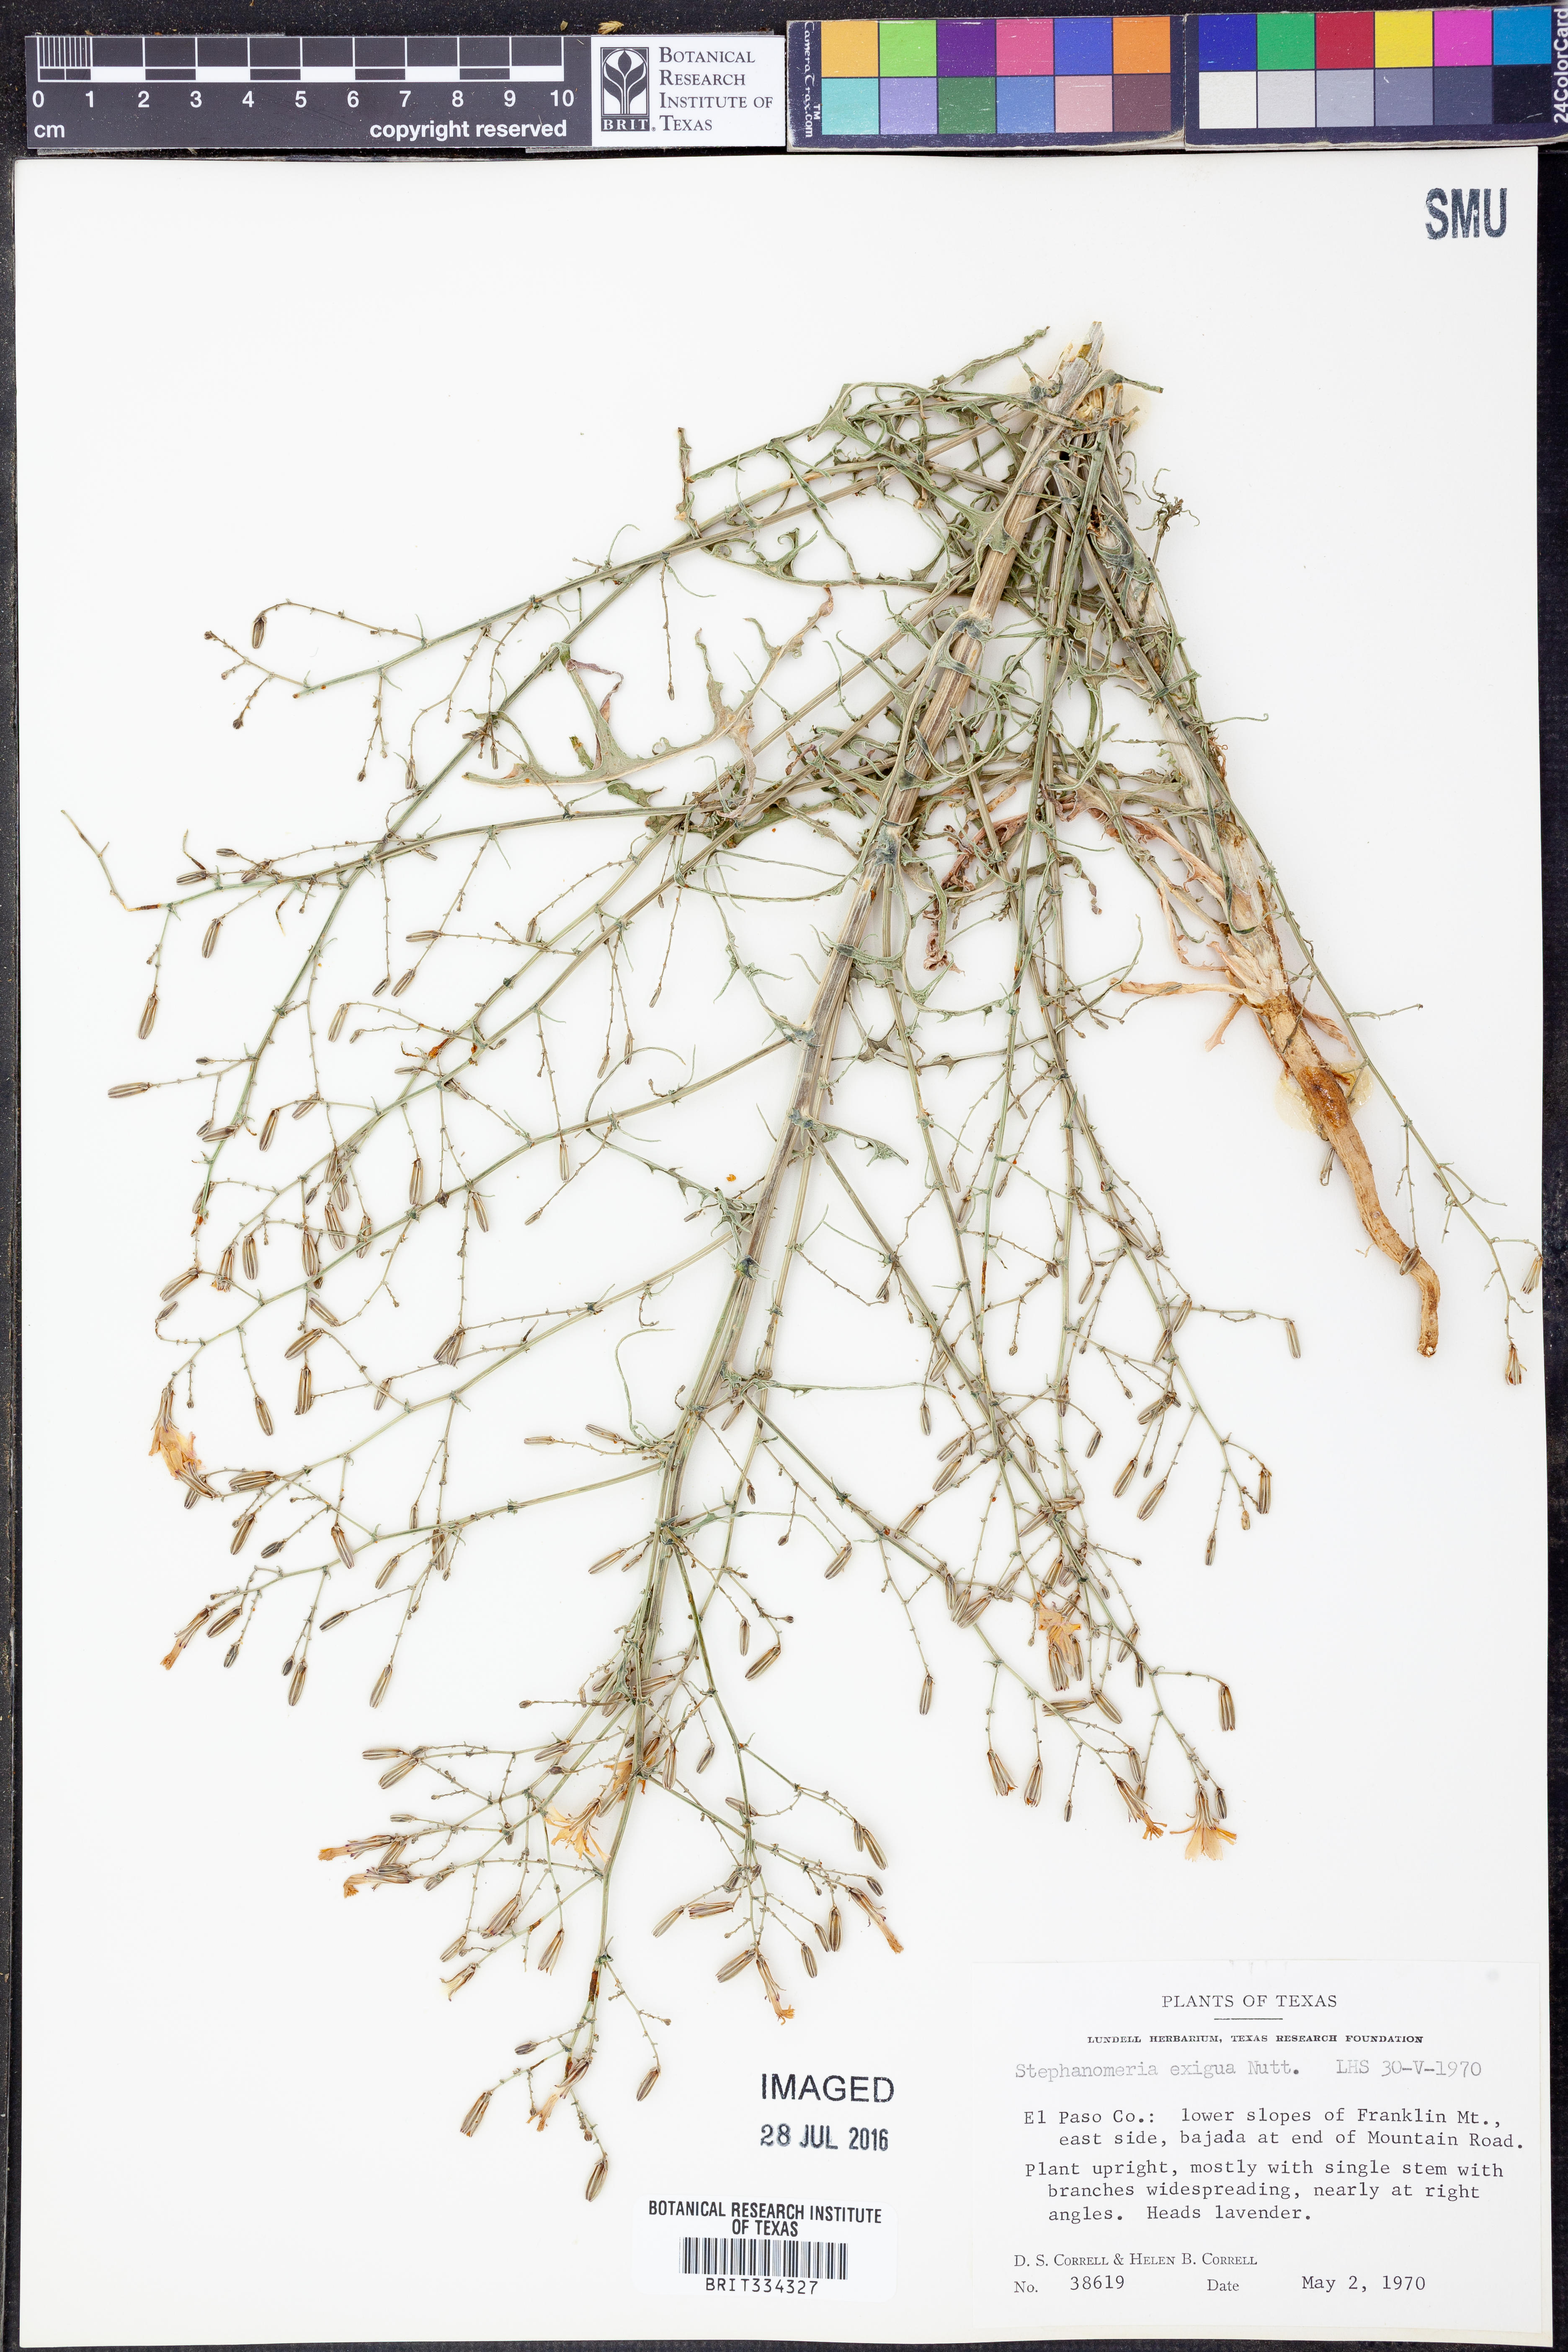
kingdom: Plantae
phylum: Tracheophyta
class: Magnoliopsida
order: Asterales
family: Asteraceae
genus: Stephanomeria
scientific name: Stephanomeria exigua
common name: Small wirelettuce
